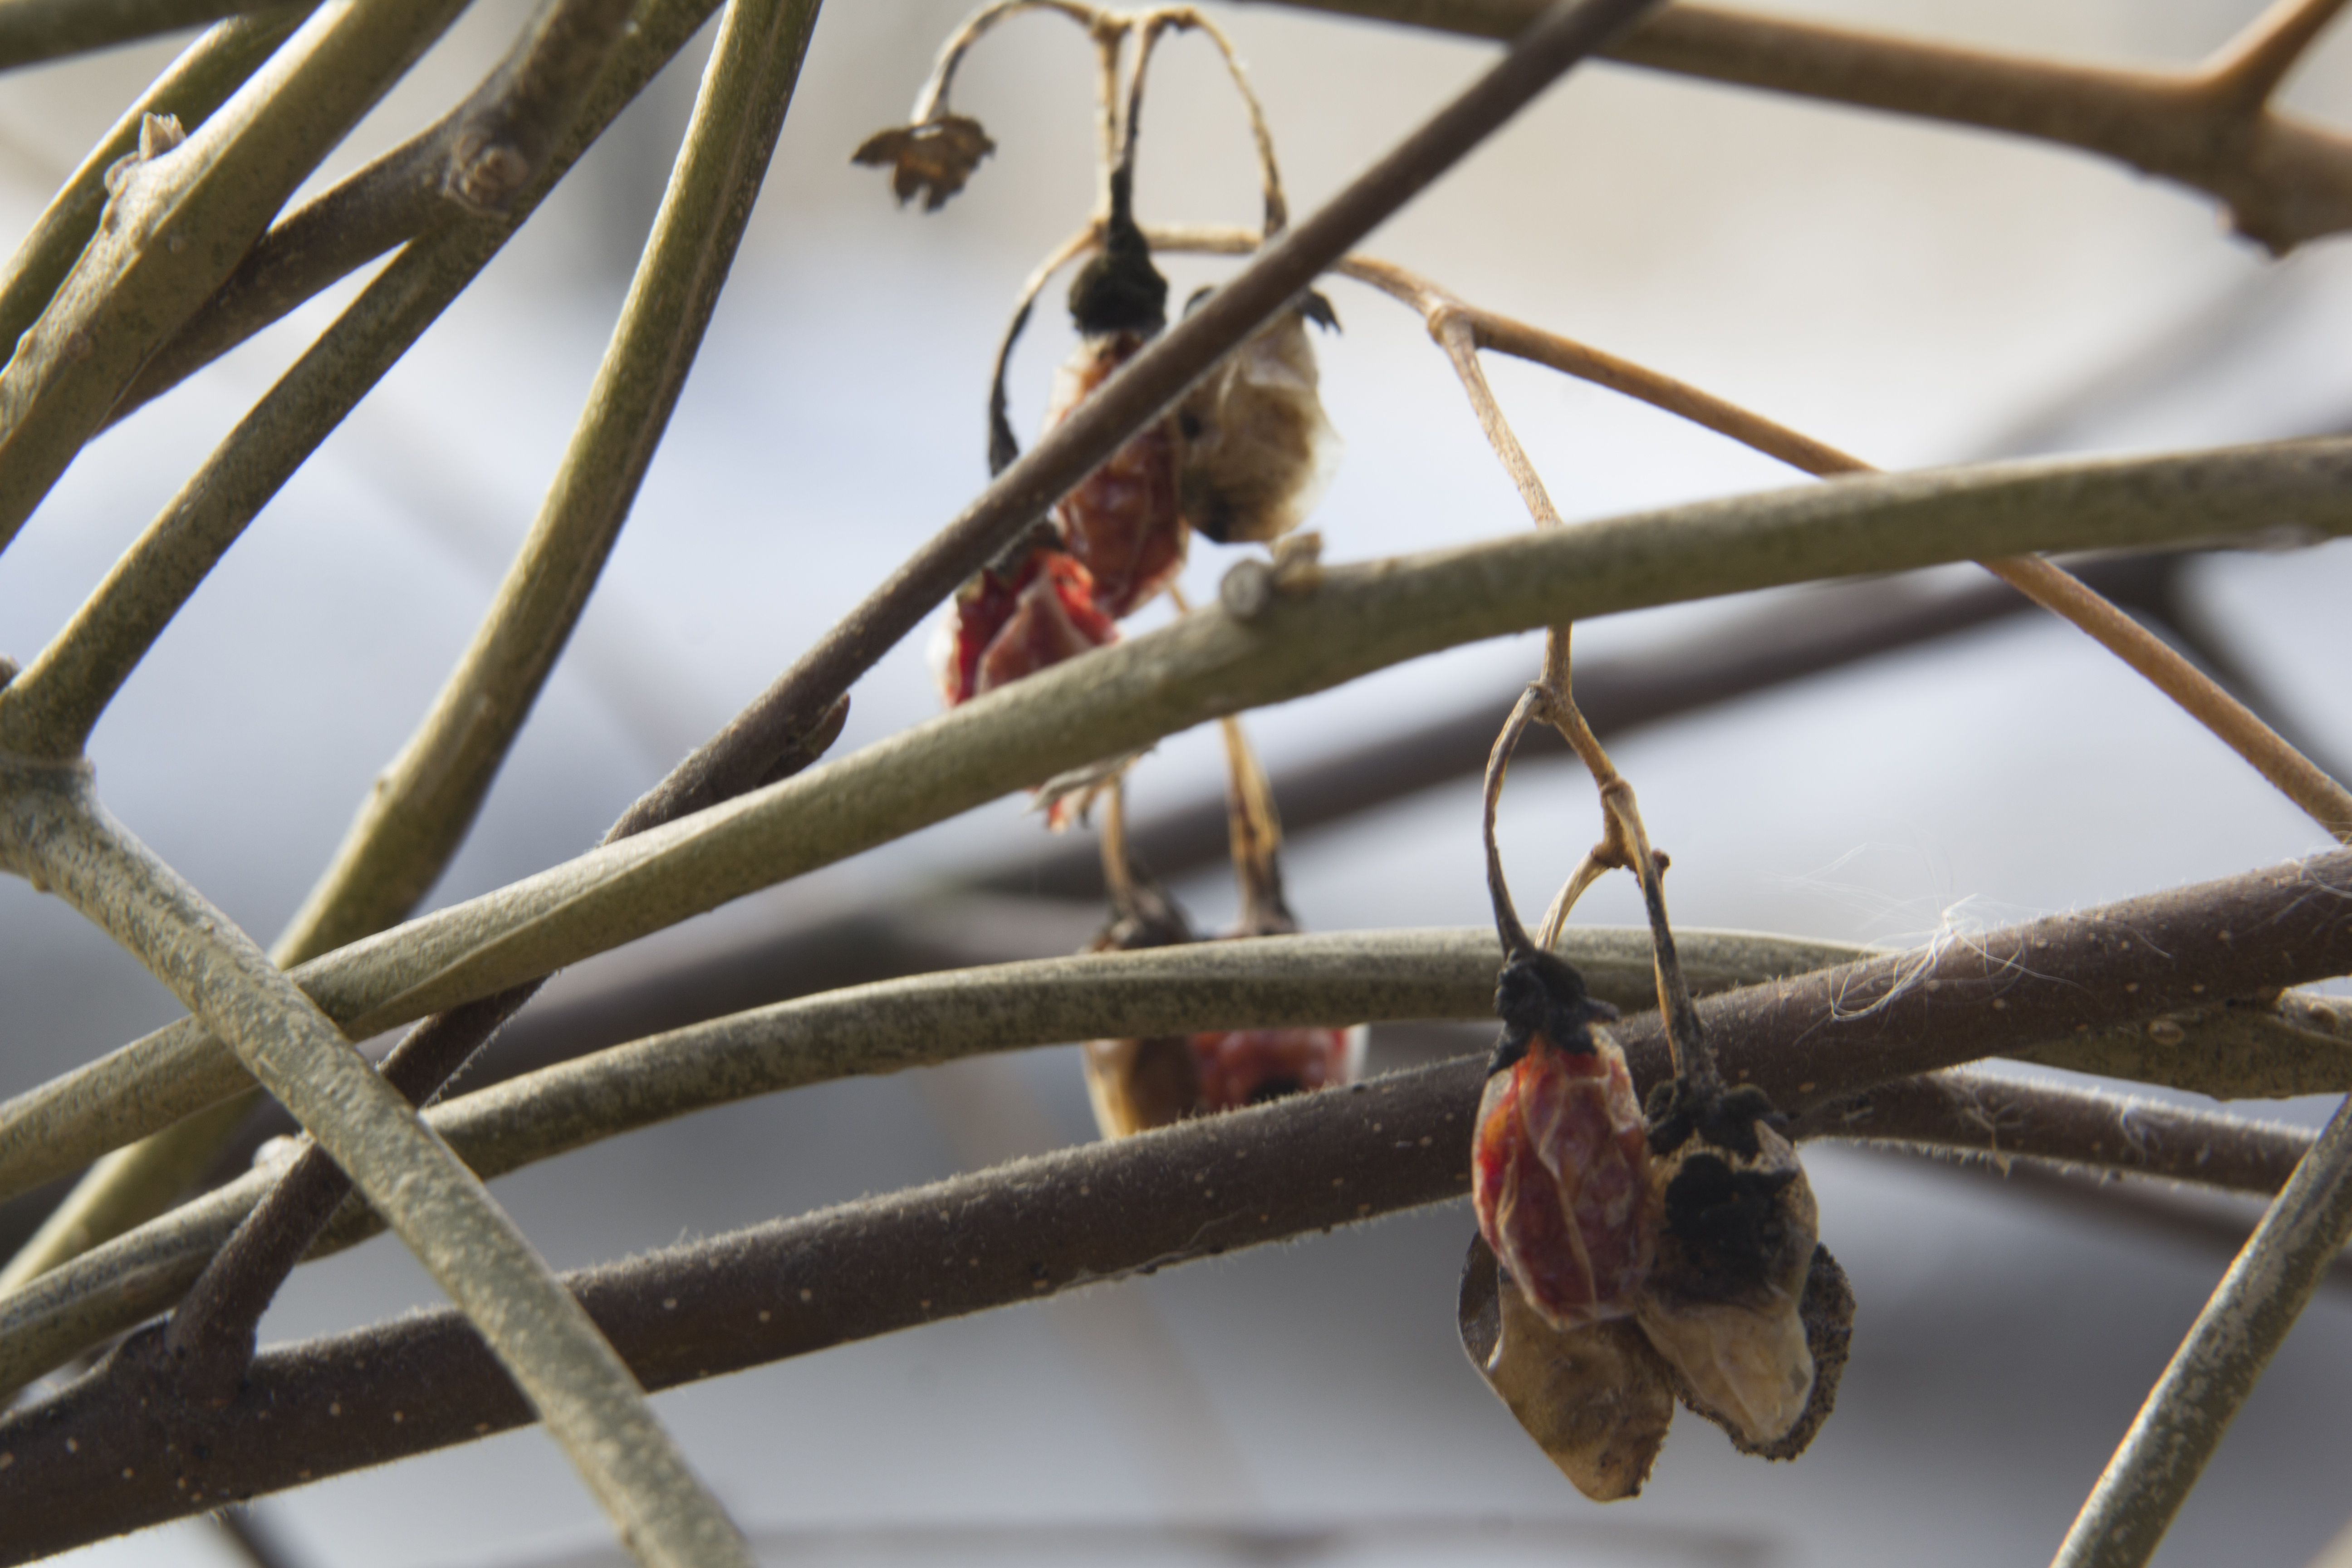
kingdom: Plantae
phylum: Tracheophyta
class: Magnoliopsida
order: Solanales
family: Solanaceae
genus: Solanum
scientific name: Solanum dulcamara
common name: Climbing nightshade
